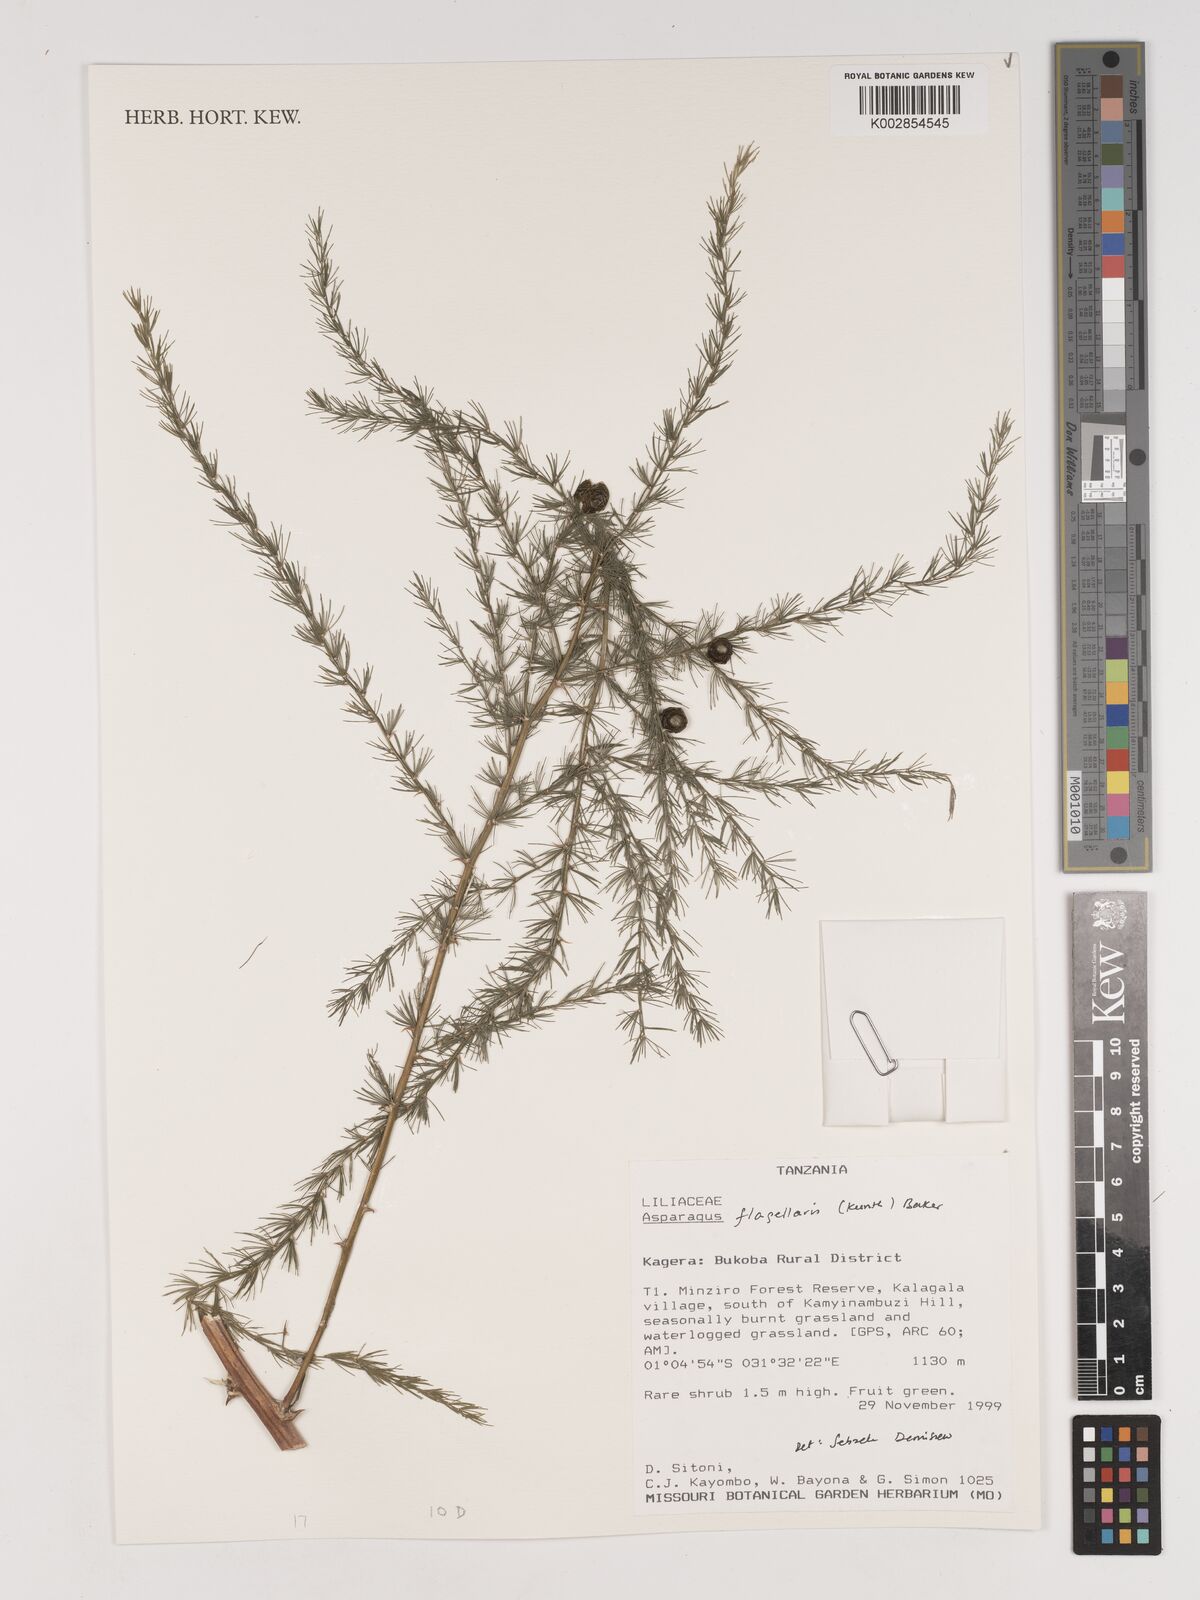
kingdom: Plantae
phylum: Tracheophyta
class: Liliopsida
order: Asparagales
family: Asparagaceae
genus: Asparagus
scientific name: Asparagus flagellaris
